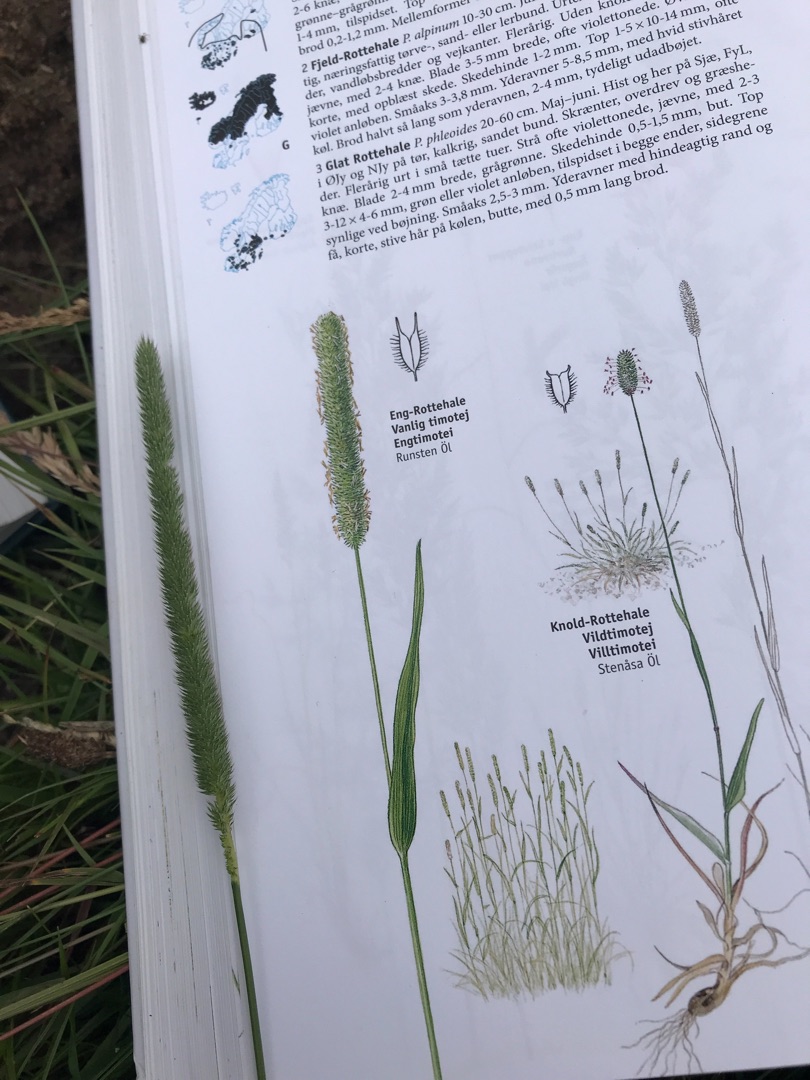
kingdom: Plantae
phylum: Tracheophyta
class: Liliopsida
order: Poales
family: Poaceae
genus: Phleum
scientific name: Phleum pratense
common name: Eng-rottehale
